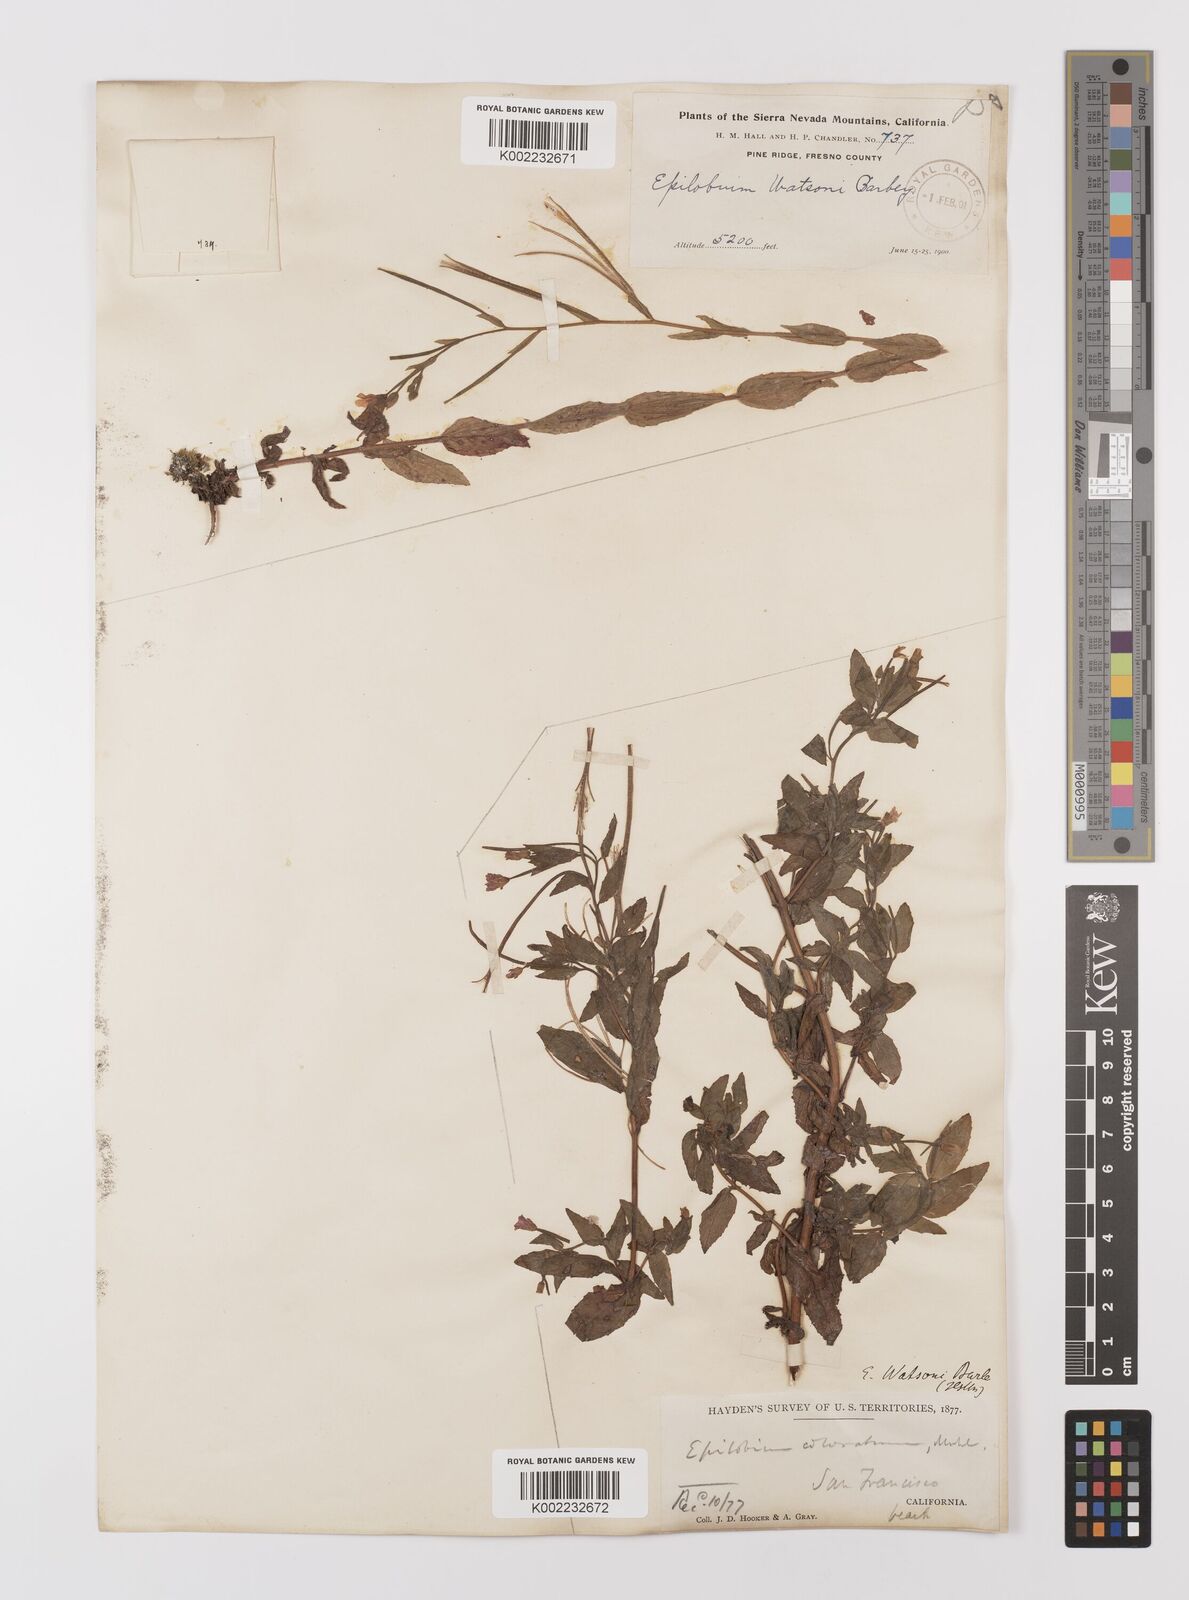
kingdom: Plantae
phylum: Tracheophyta
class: Magnoliopsida
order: Myrtales
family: Onagraceae
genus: Epilobium
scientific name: Epilobium ciliatum
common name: American willowherb
